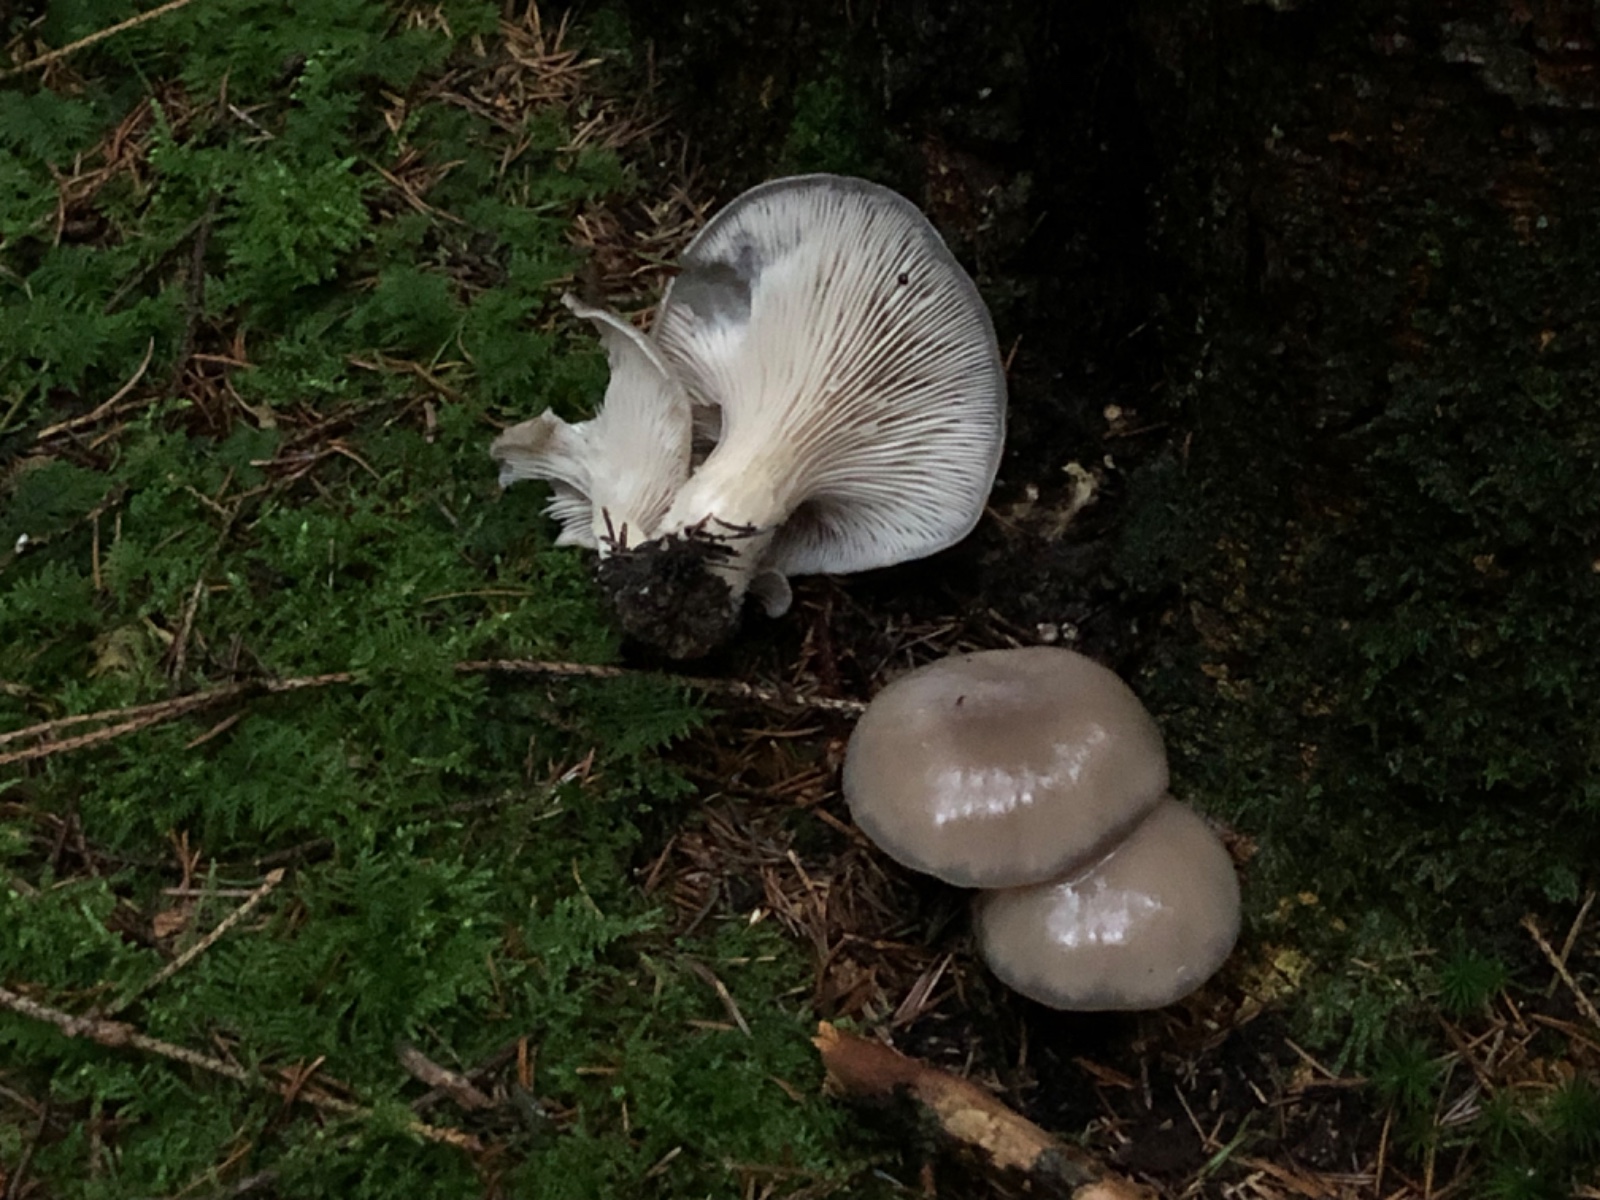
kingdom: Fungi
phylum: Basidiomycota
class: Agaricomycetes
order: Agaricales
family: Pleurotaceae
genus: Pleurotus
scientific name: Pleurotus ostreatus
